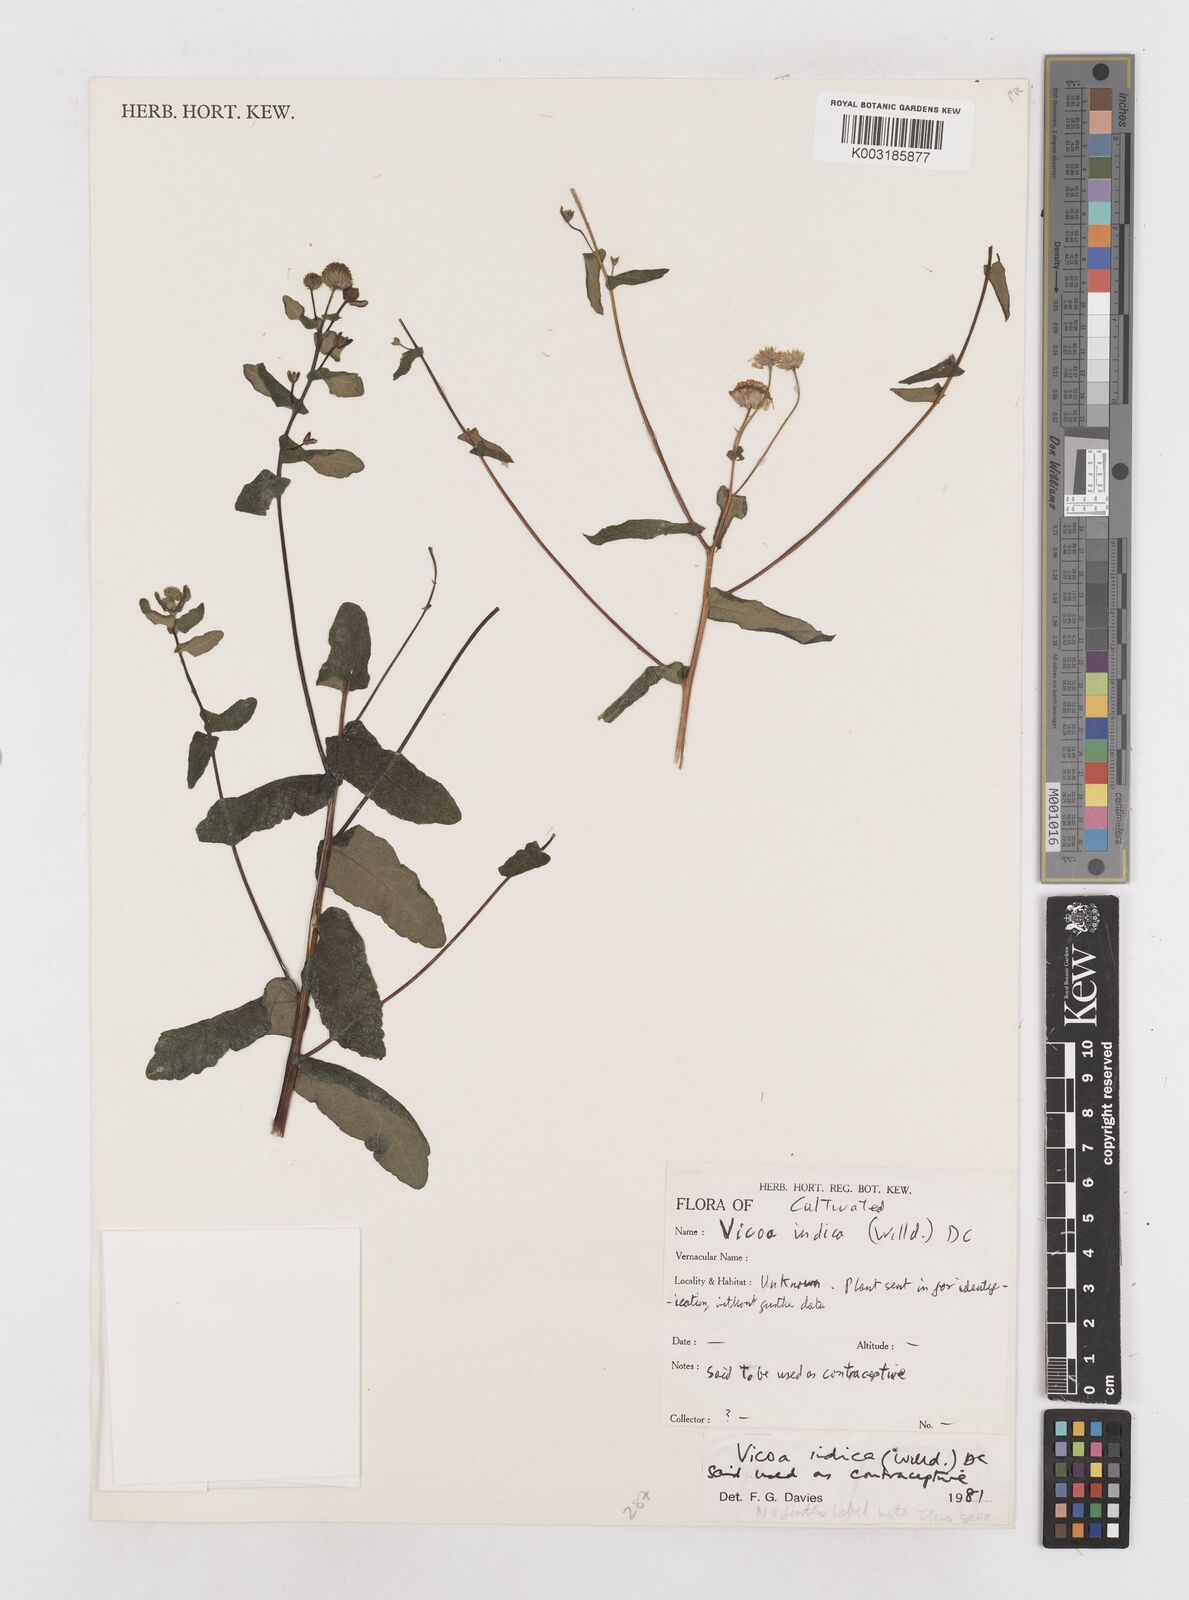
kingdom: Plantae
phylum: Tracheophyta
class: Magnoliopsida
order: Asterales
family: Asteraceae
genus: Vicoa
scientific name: Vicoa indica
